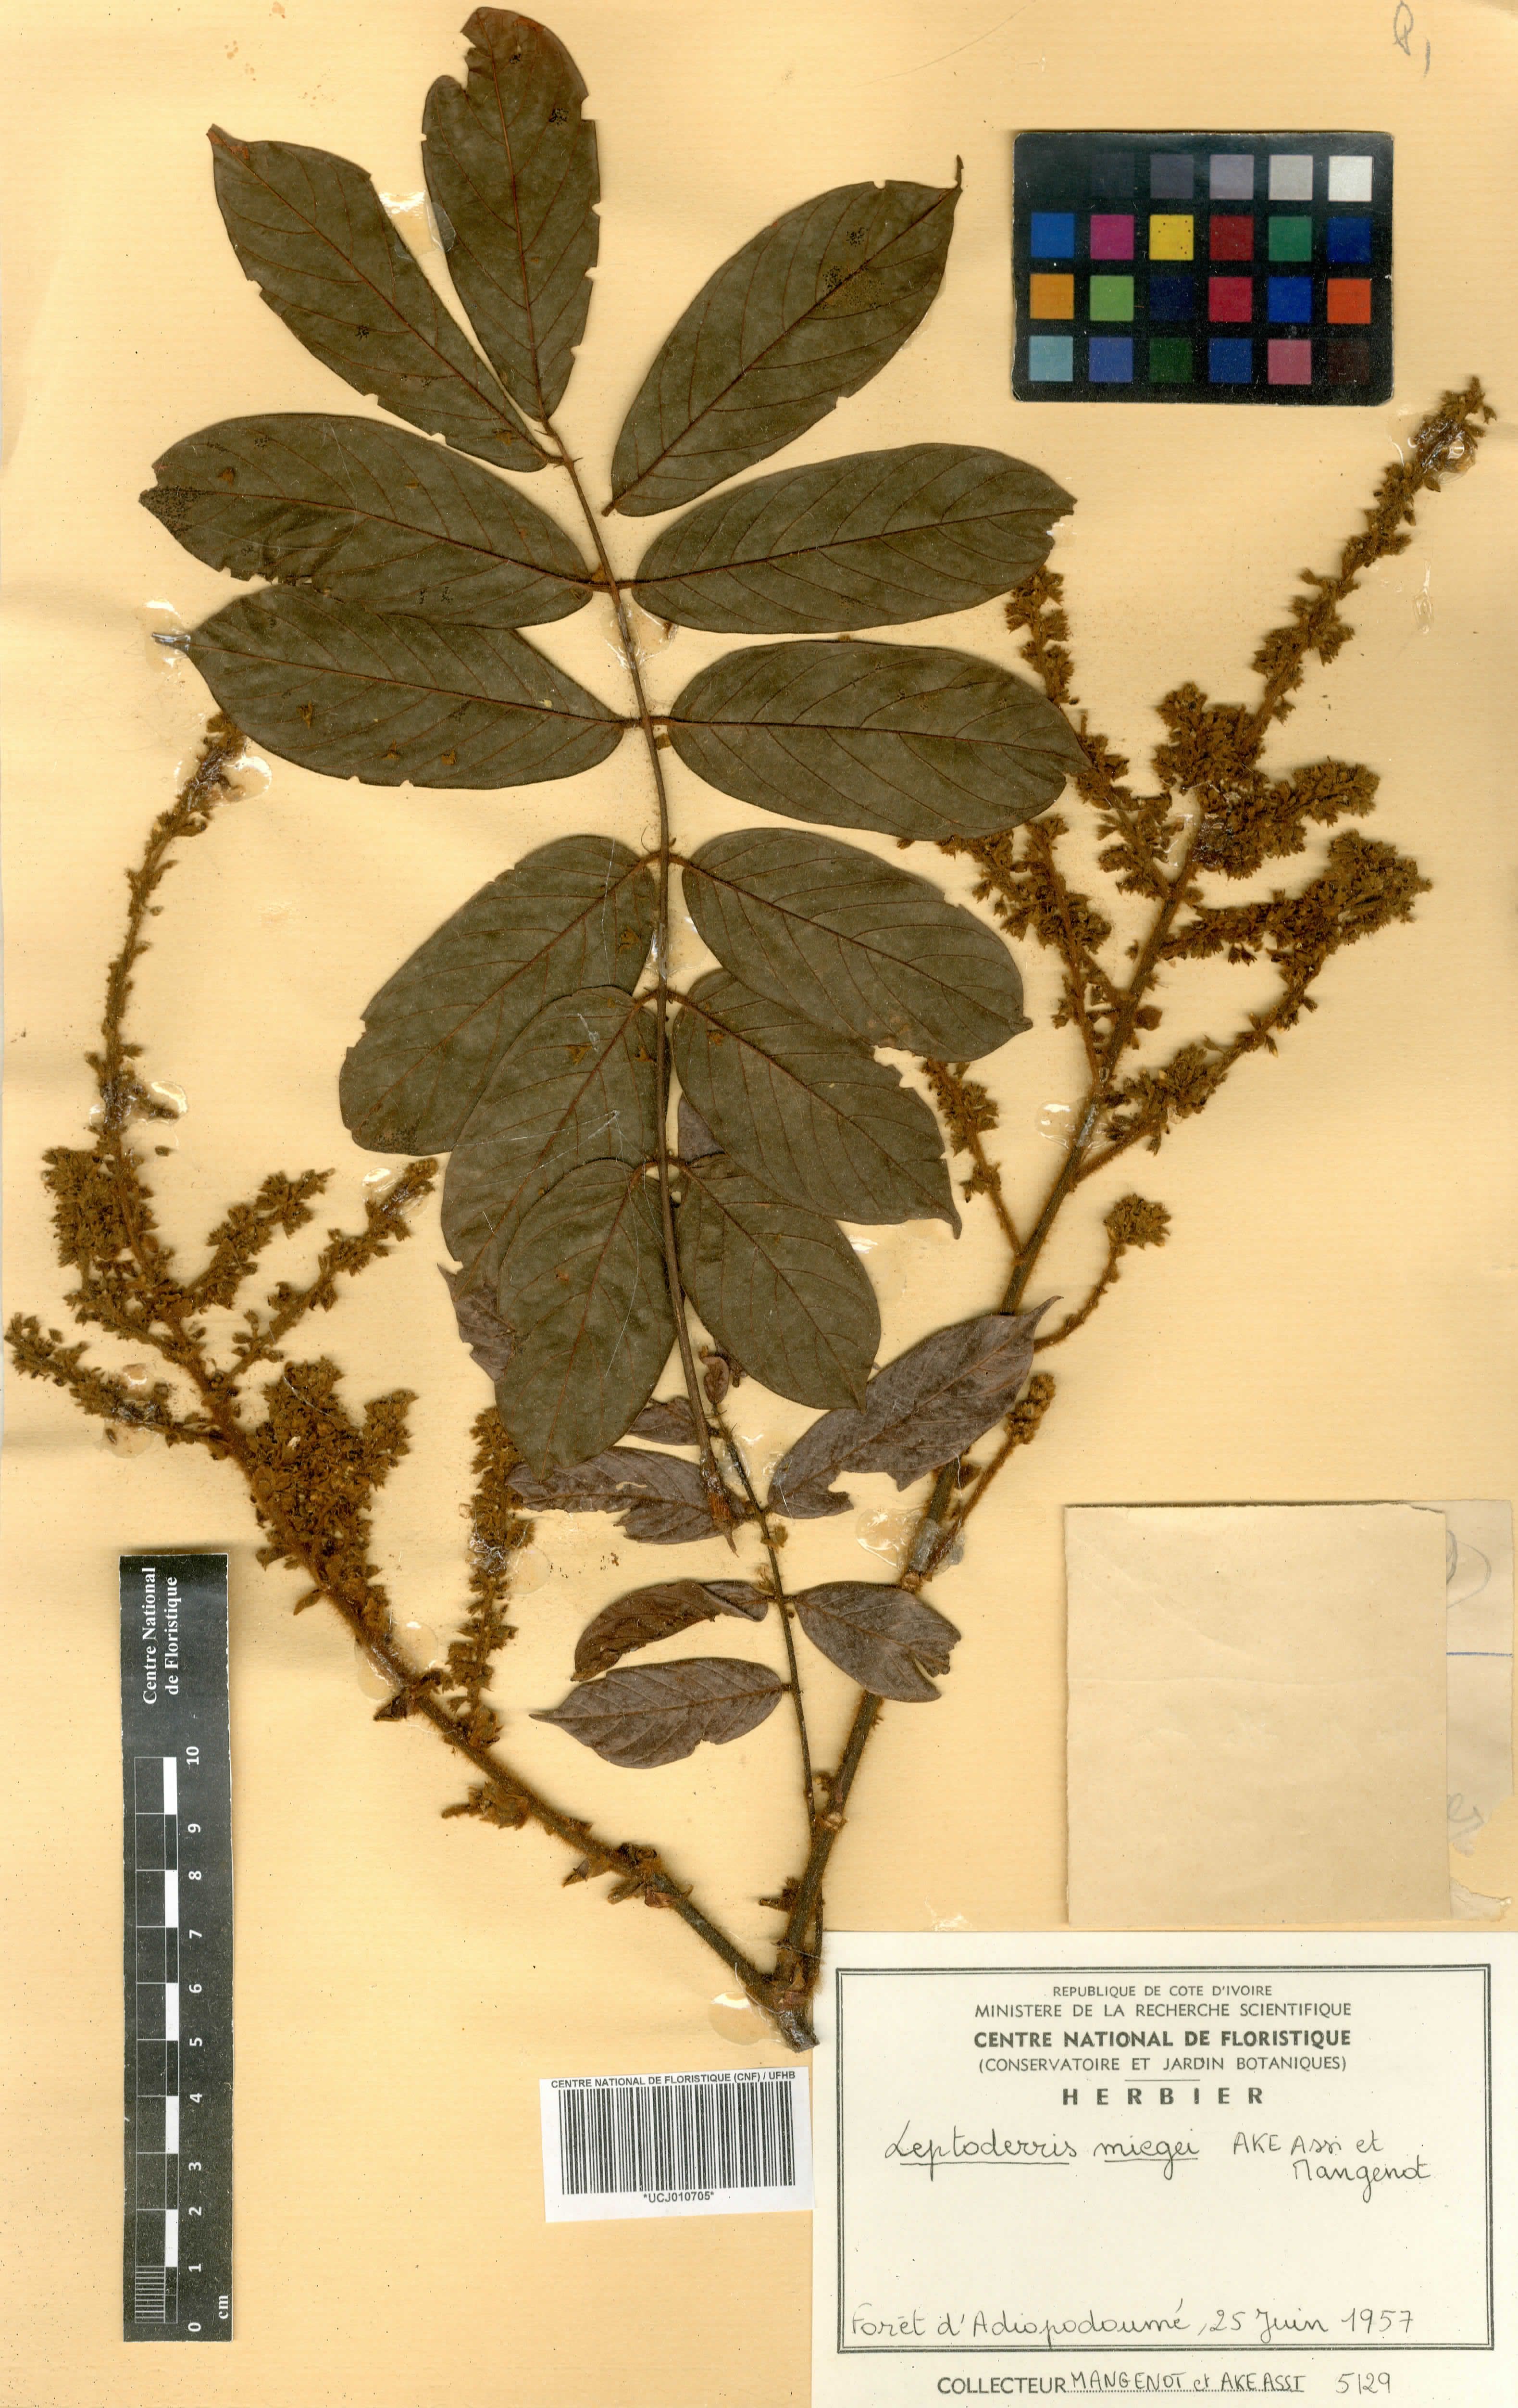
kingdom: Plantae
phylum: Tracheophyta
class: Magnoliopsida
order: Fabales
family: Fabaceae
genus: Leptoderris
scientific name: Leptoderris miegei
